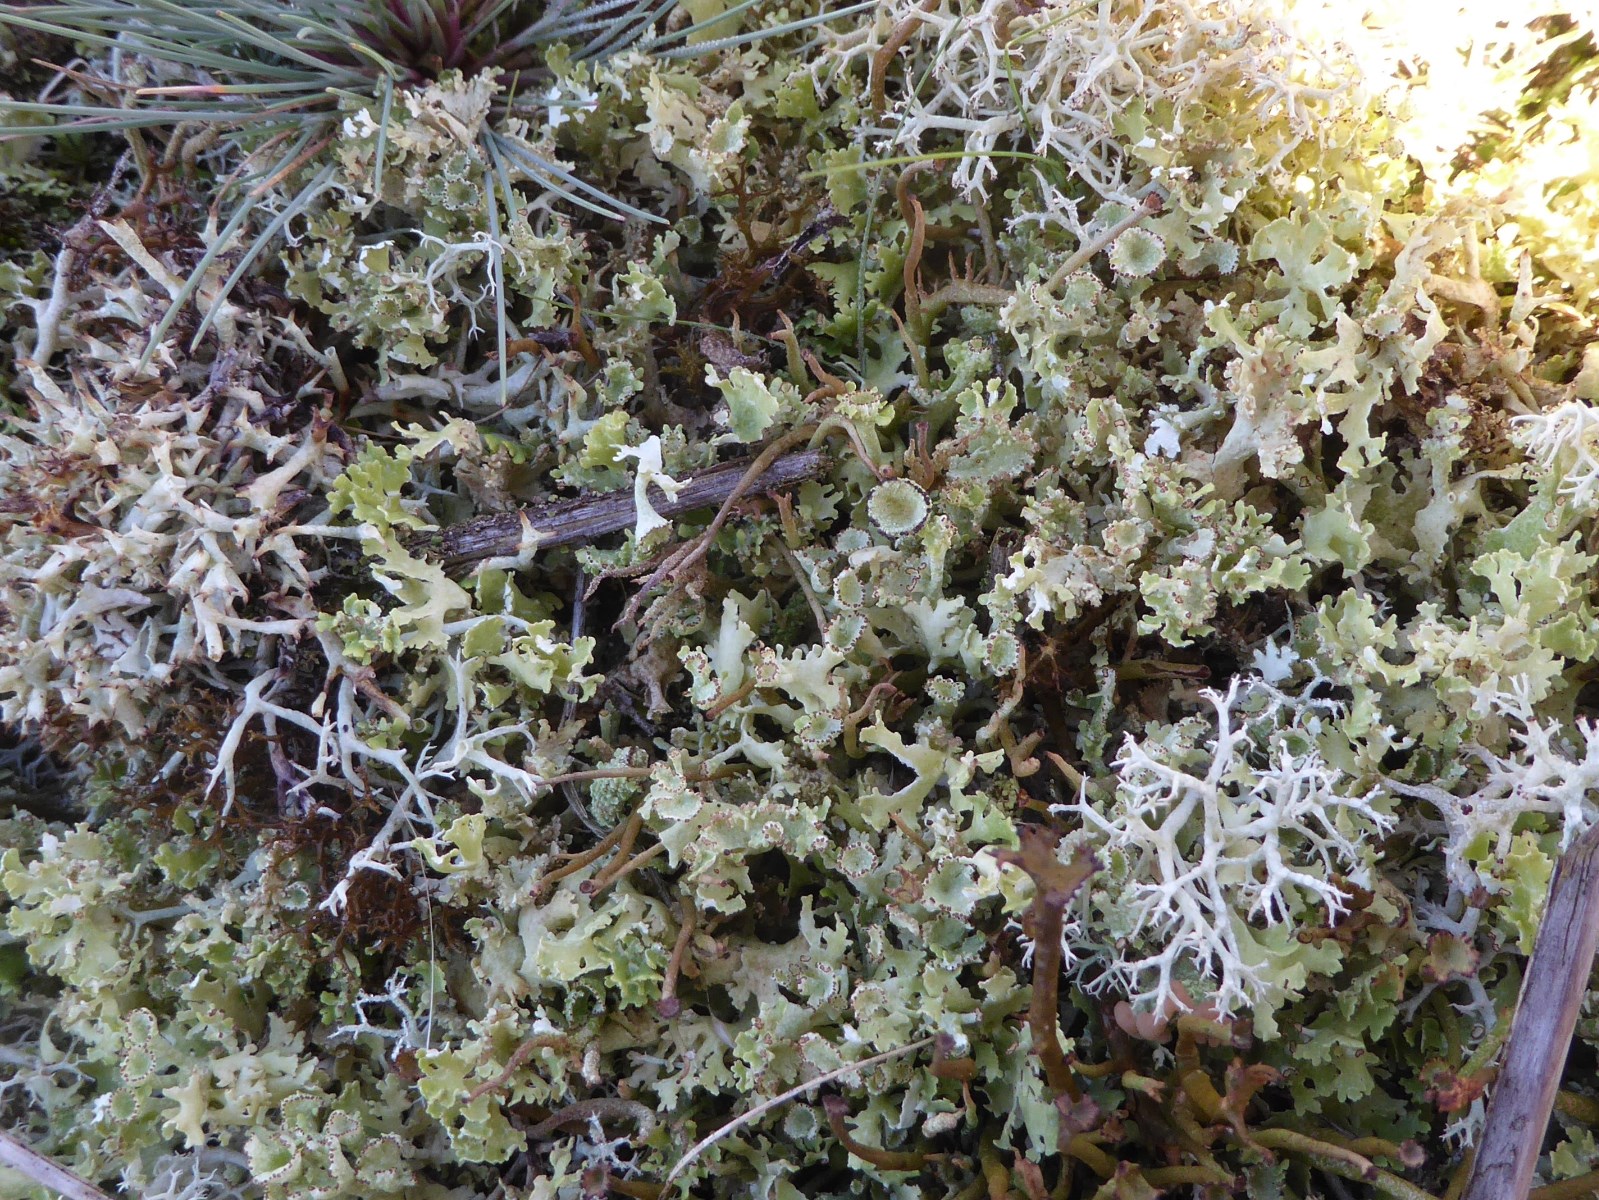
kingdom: Fungi
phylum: Ascomycota
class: Lecanoromycetes
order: Lecanorales
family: Cladoniaceae
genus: Cladonia
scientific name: Cladonia foliacea
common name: fliget bægerlav
